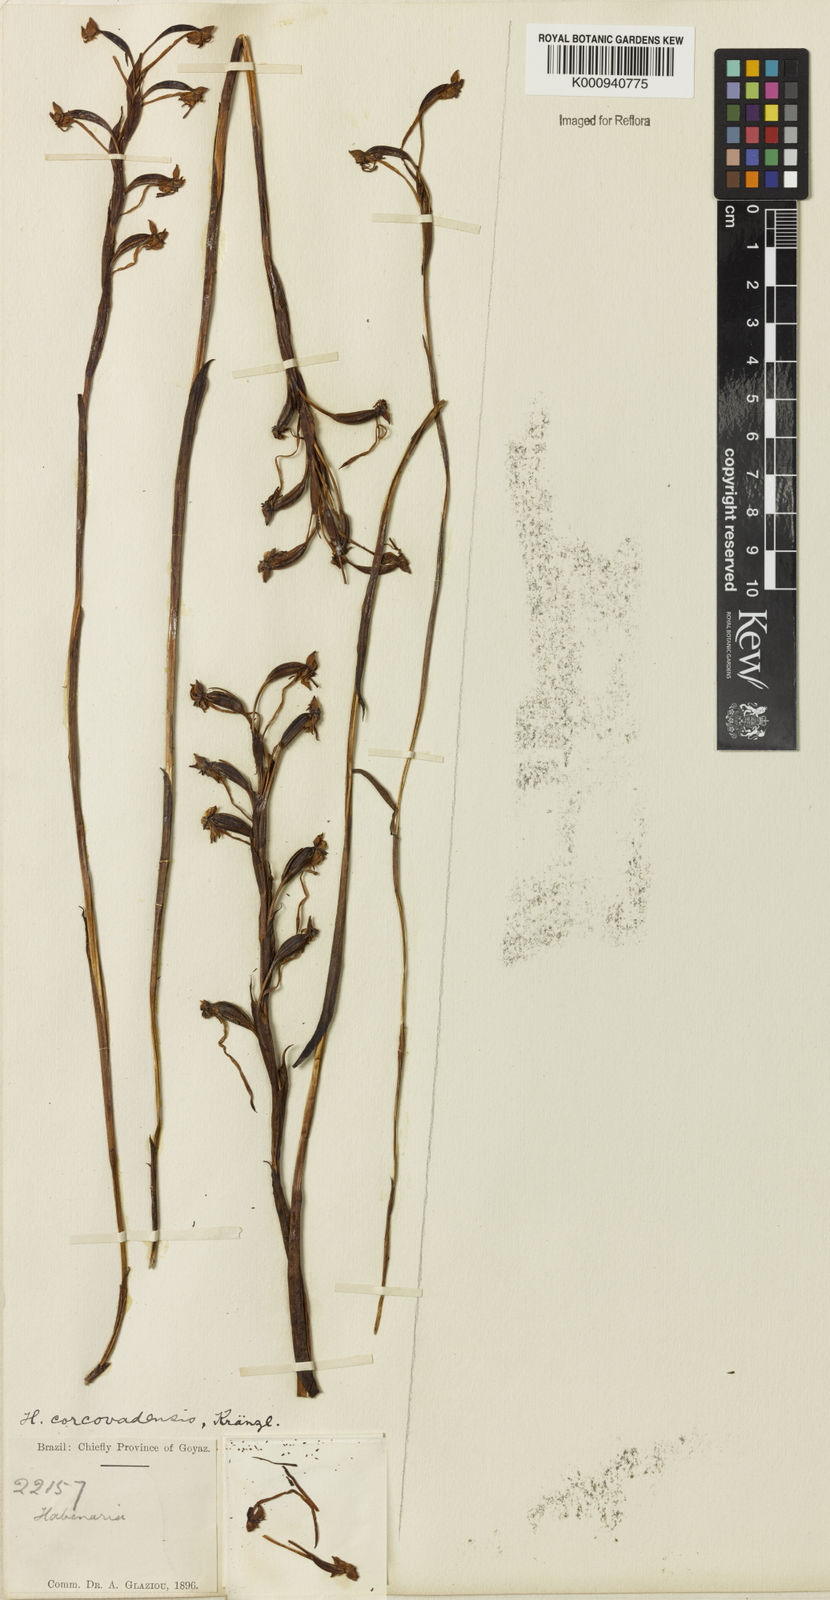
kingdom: Plantae
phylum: Tracheophyta
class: Liliopsida
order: Asparagales
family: Orchidaceae
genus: Habenaria
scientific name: Habenaria rodeiensis
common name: Bog orchid
